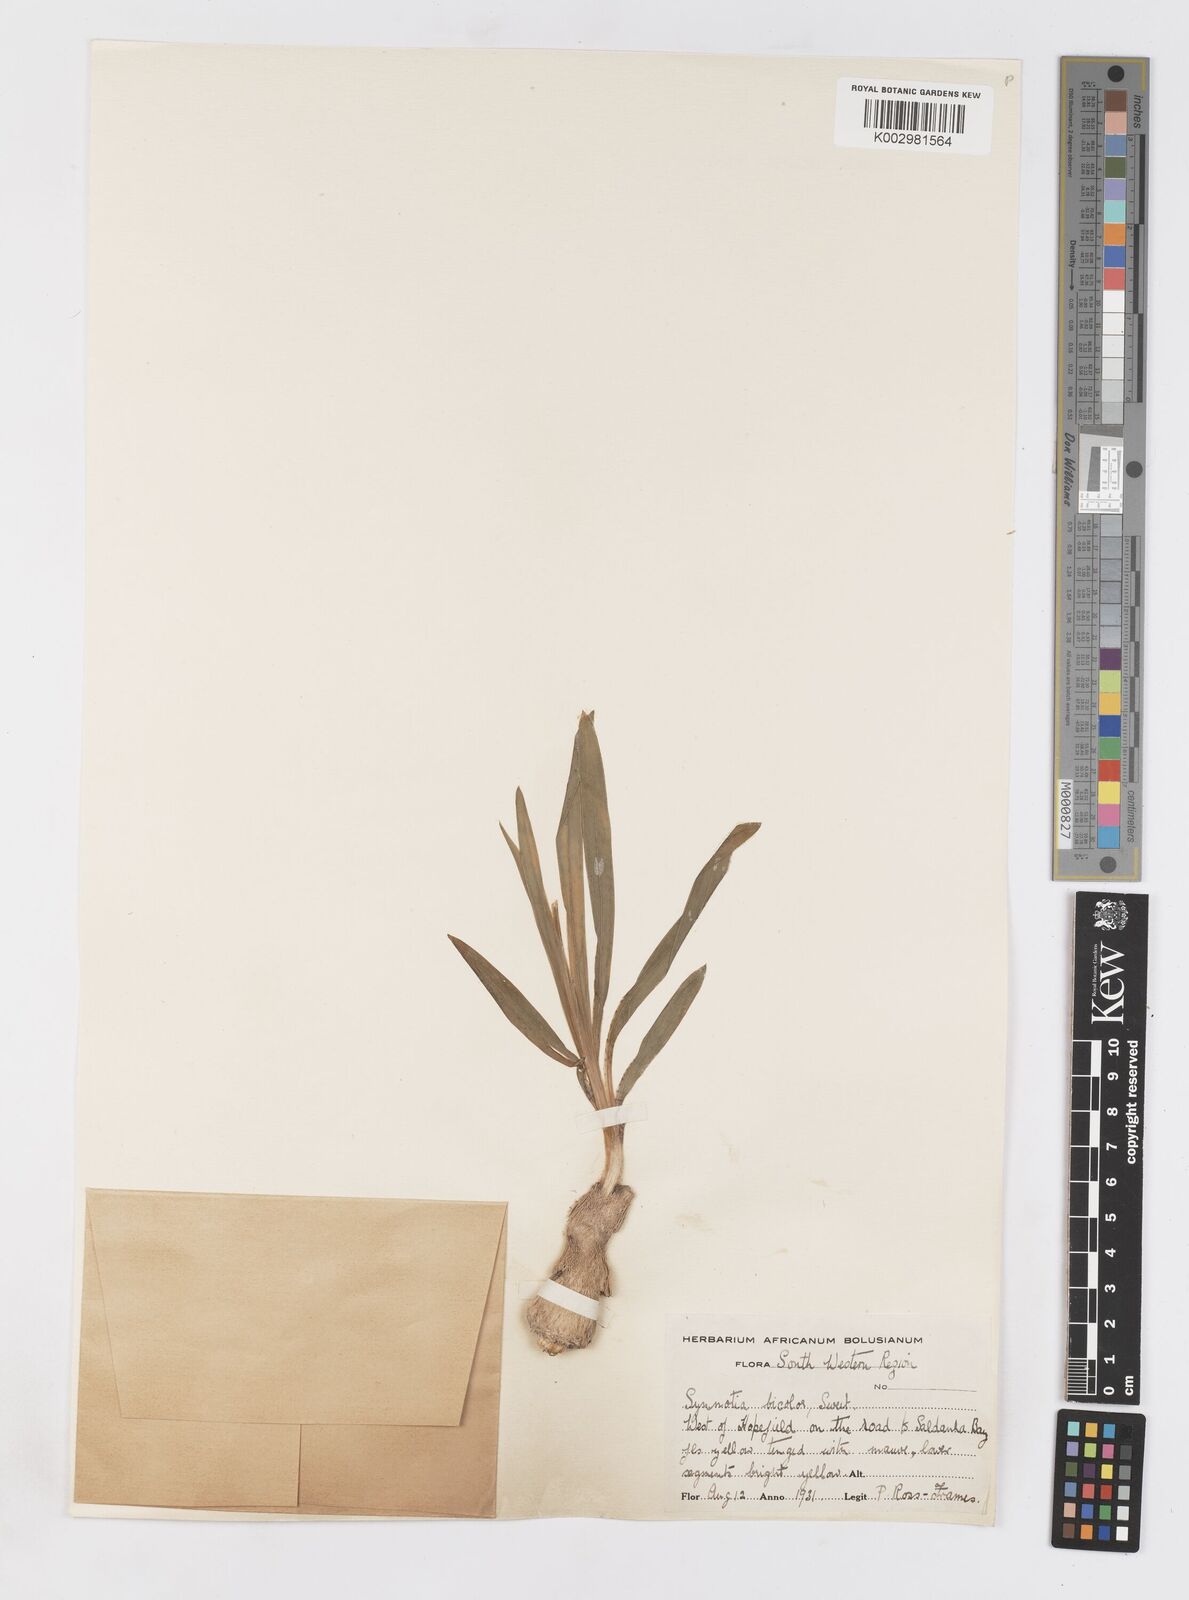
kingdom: Plantae
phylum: Tracheophyta
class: Liliopsida
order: Asparagales
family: Iridaceae
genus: Sparaxis
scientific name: Sparaxis
